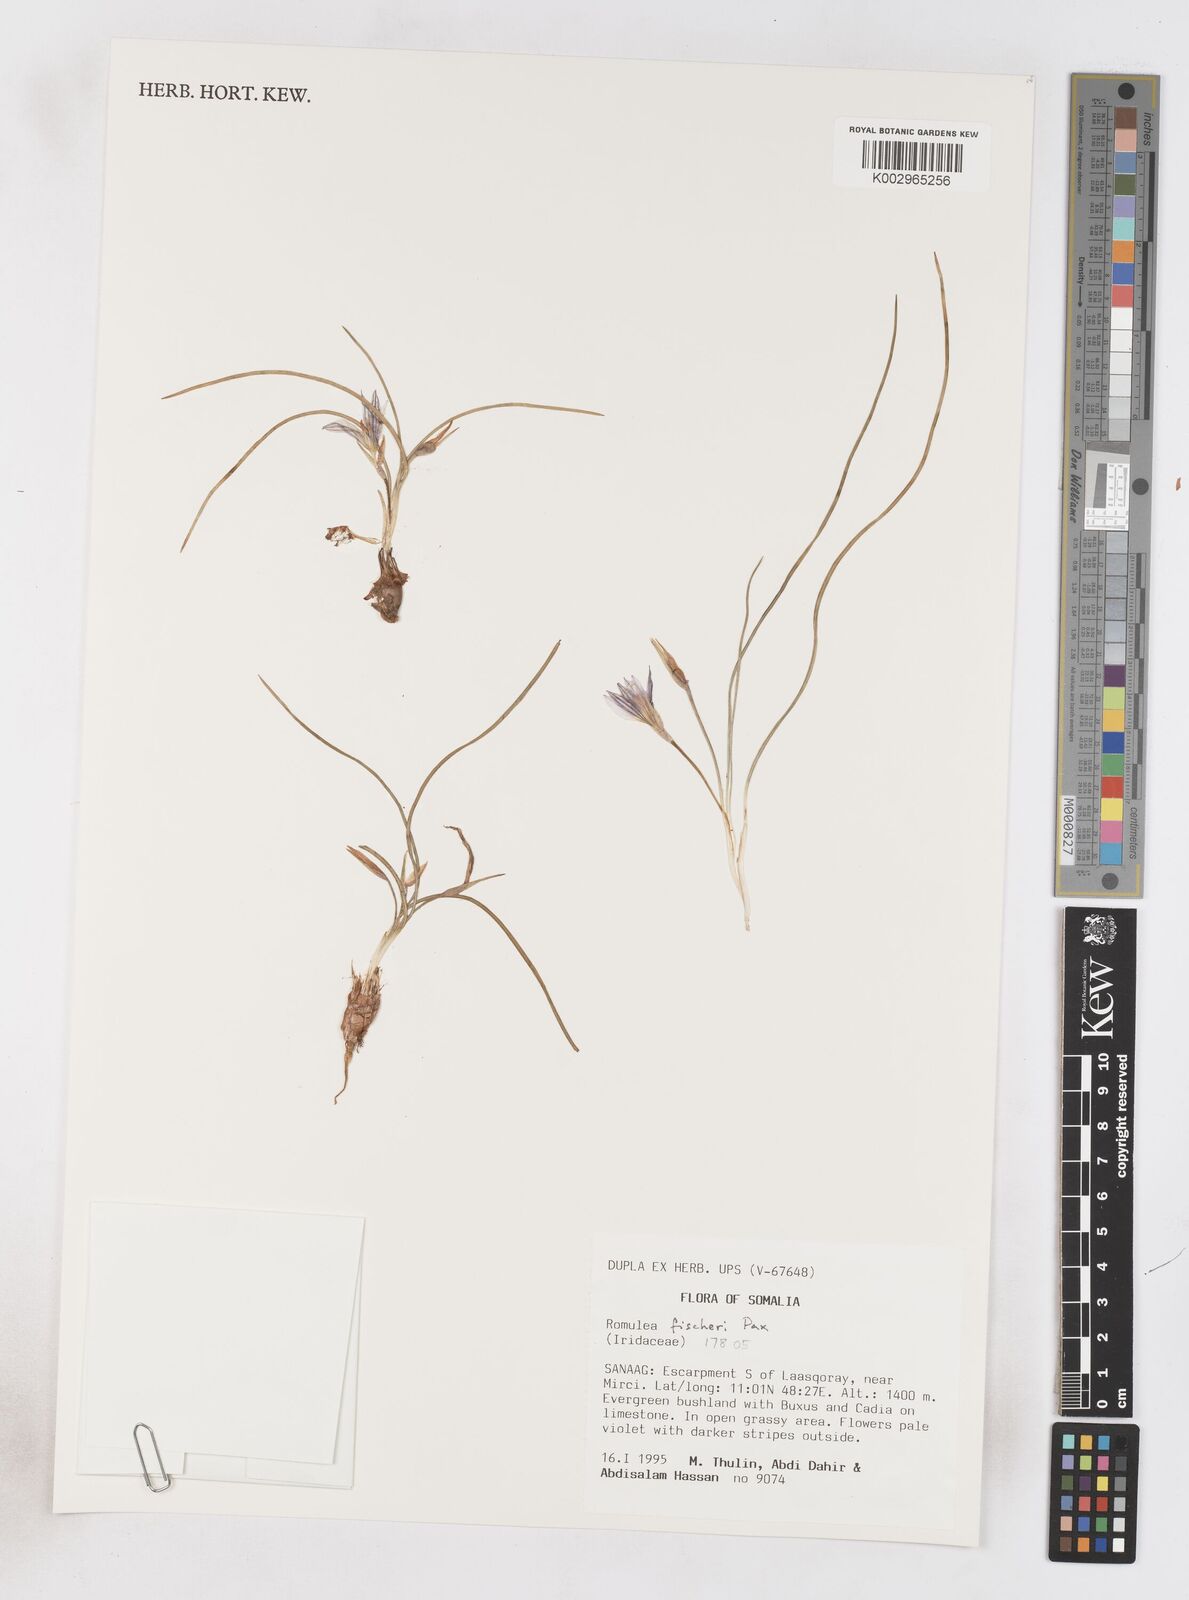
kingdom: Plantae
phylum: Tracheophyta
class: Liliopsida
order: Asparagales
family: Iridaceae
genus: Romulea
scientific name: Romulea fischeri
